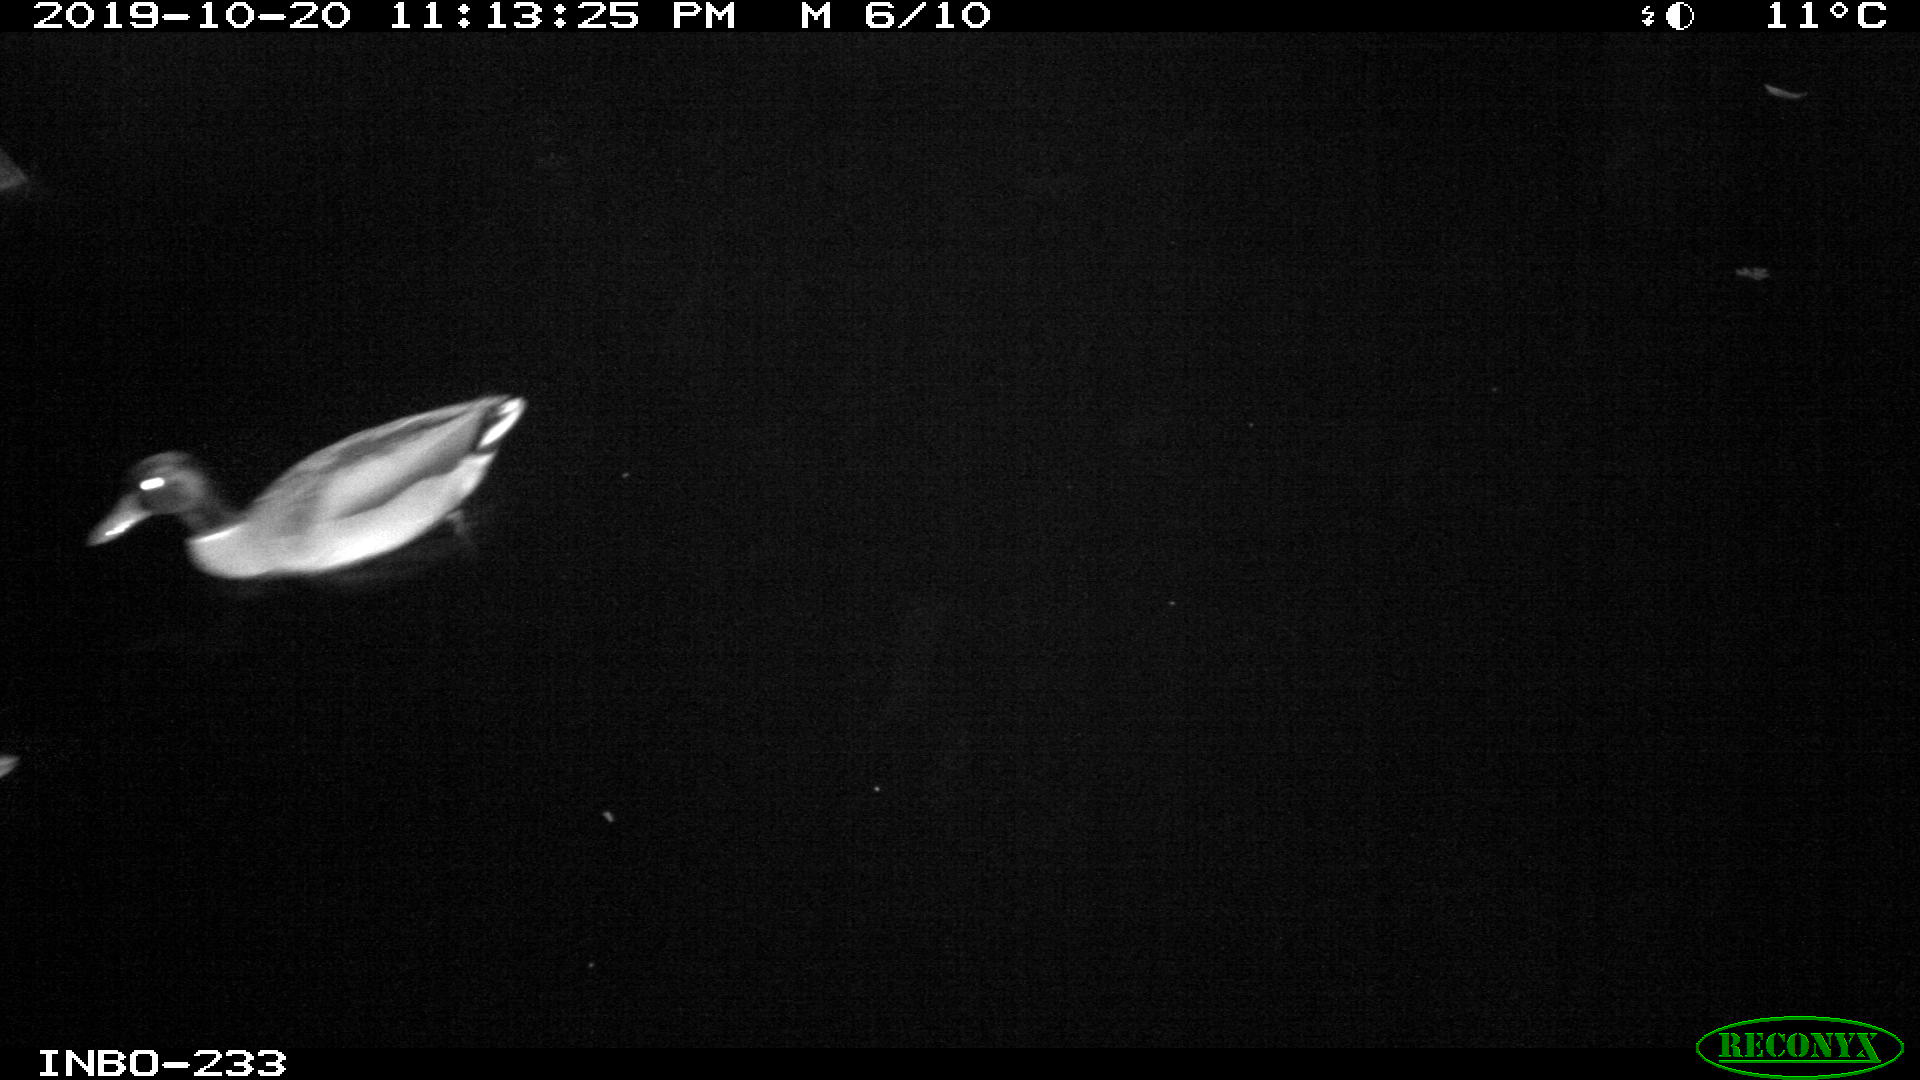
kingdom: Animalia
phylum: Chordata
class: Aves
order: Anseriformes
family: Anatidae
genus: Anas
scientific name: Anas platyrhynchos
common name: Mallard
